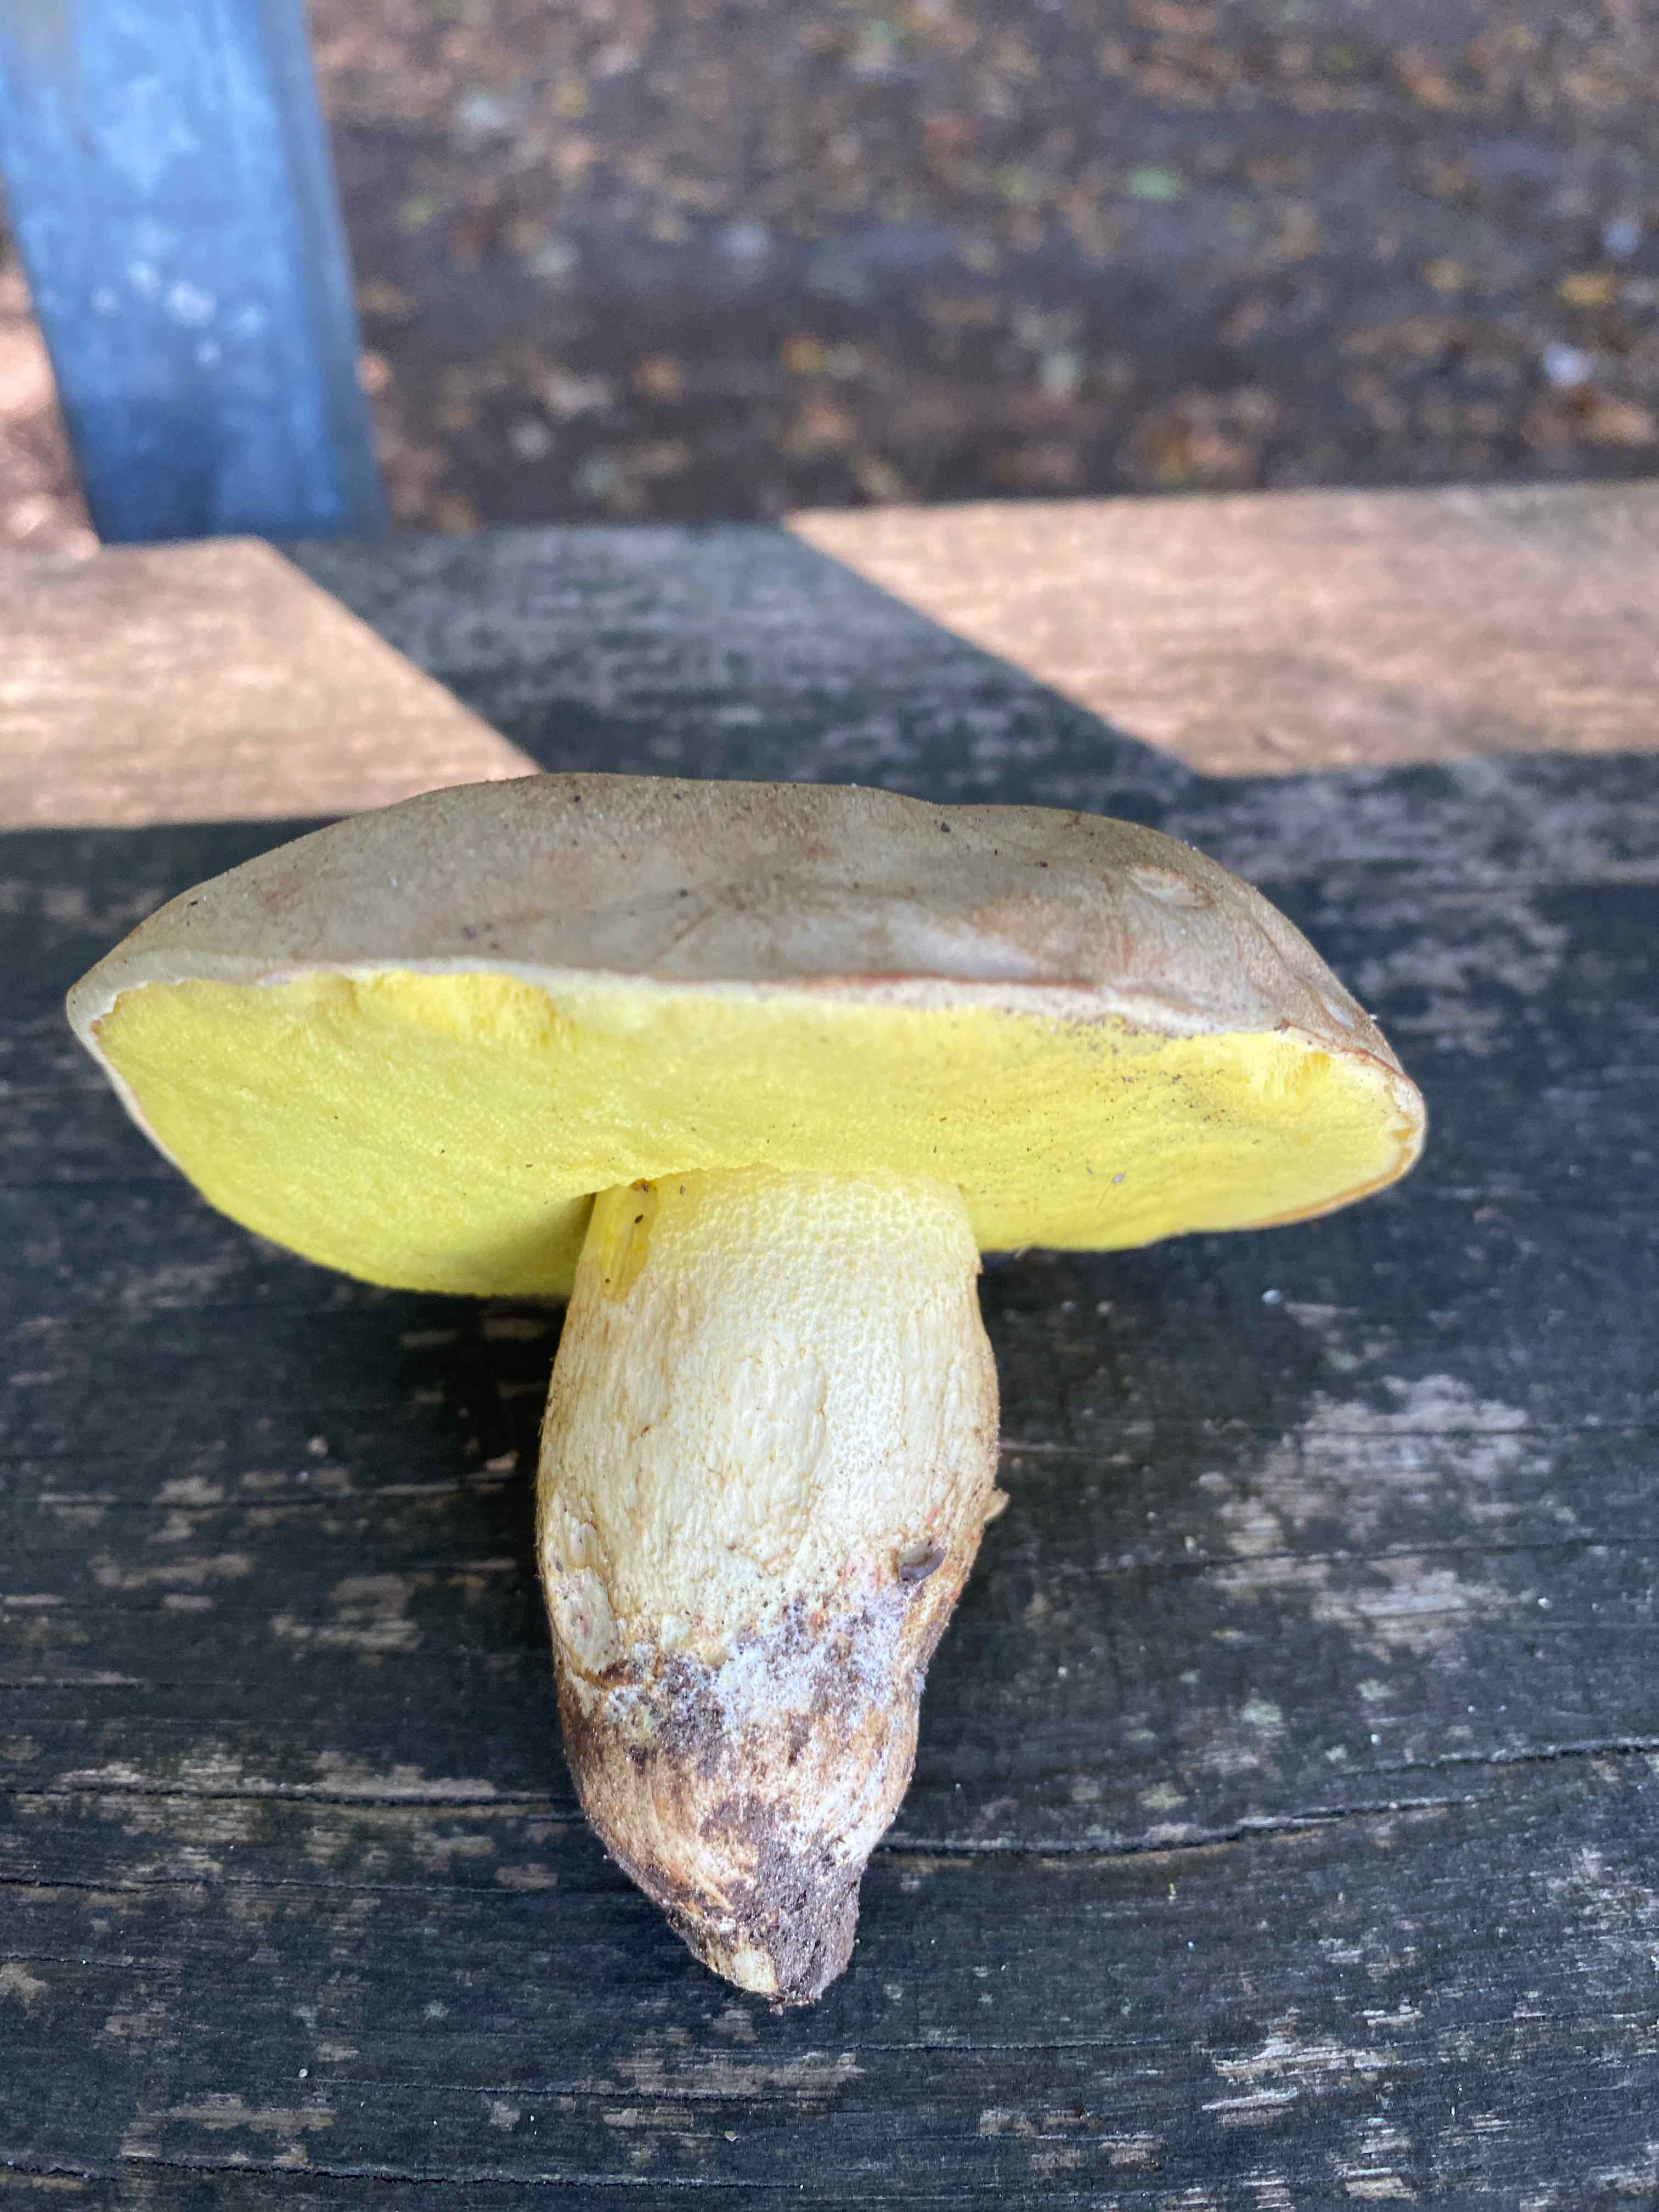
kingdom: Fungi
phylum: Basidiomycota
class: Agaricomycetes
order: Boletales
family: Boletaceae
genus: Hemileccinum
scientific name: Hemileccinum impolitum
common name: bleg rørhat
